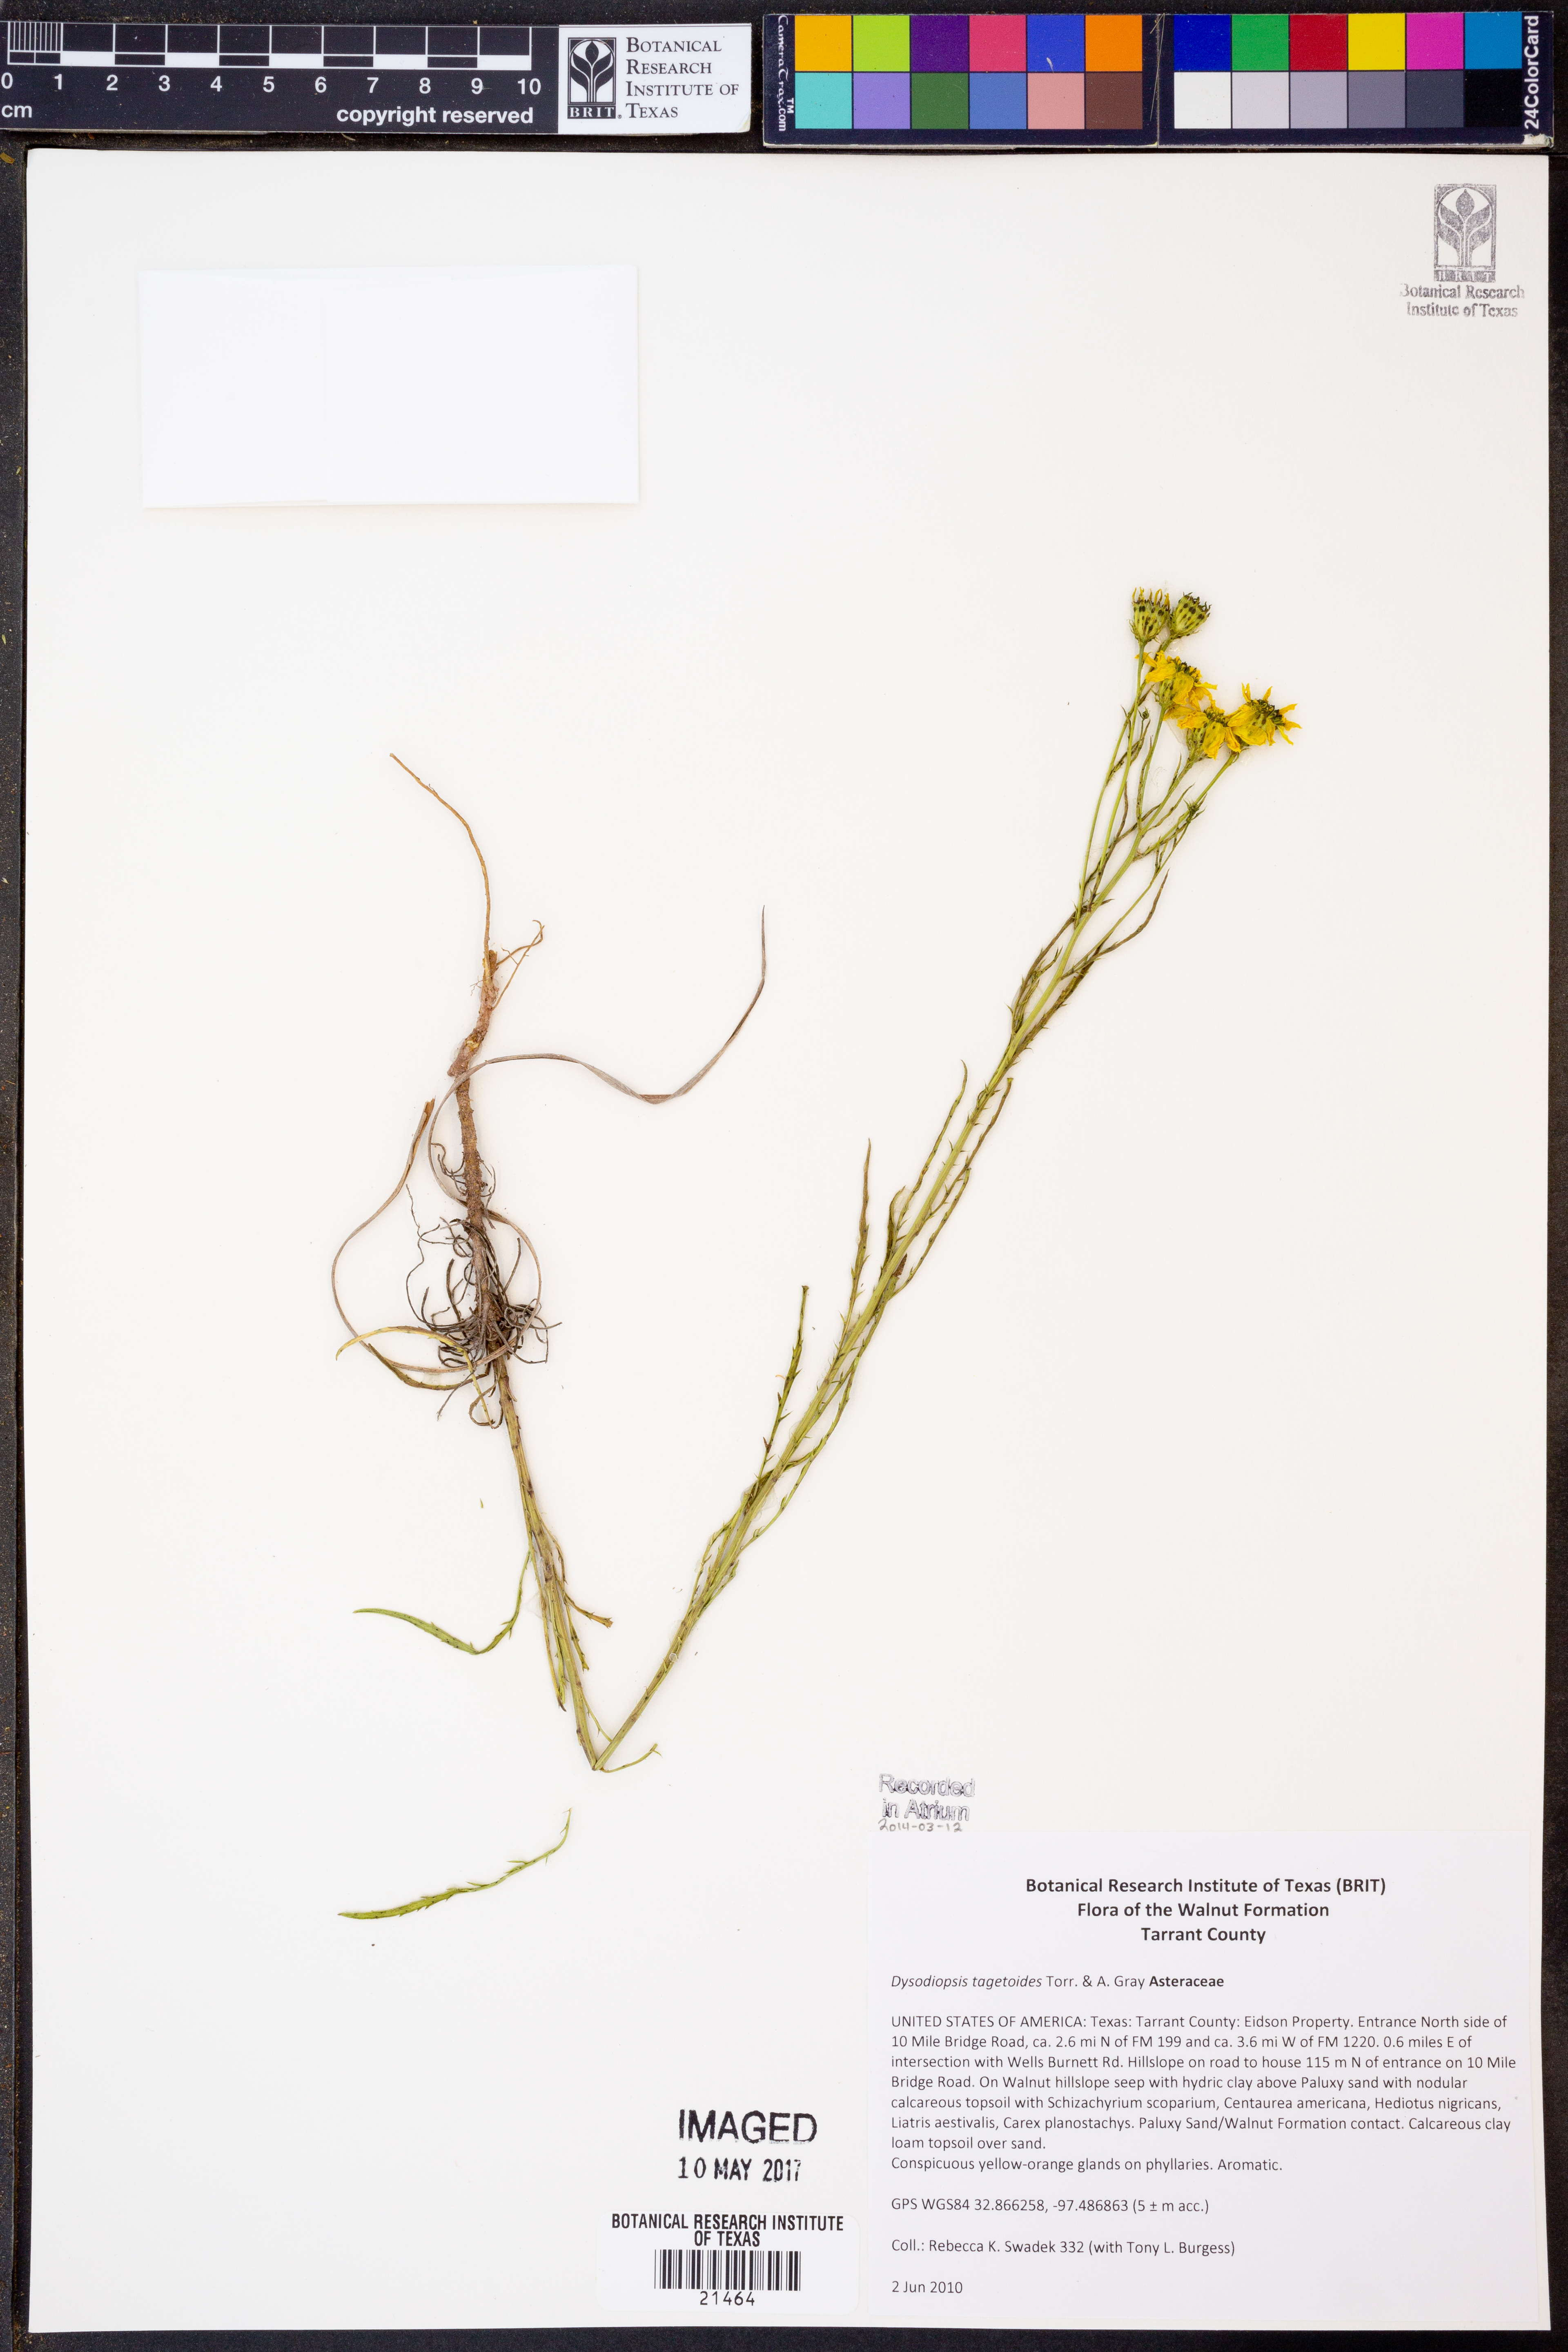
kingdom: Plantae
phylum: Tracheophyta
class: Magnoliopsida
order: Asterales
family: Asteraceae
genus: Dysodiopsis
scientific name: Dysodiopsis tagetoides
